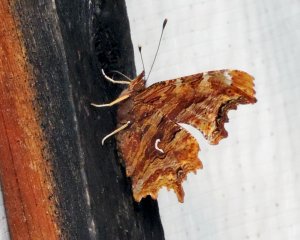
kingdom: Animalia
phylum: Arthropoda
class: Insecta
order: Lepidoptera
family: Nymphalidae
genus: Polygonia
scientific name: Polygonia satyrus
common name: Satyr Comma
